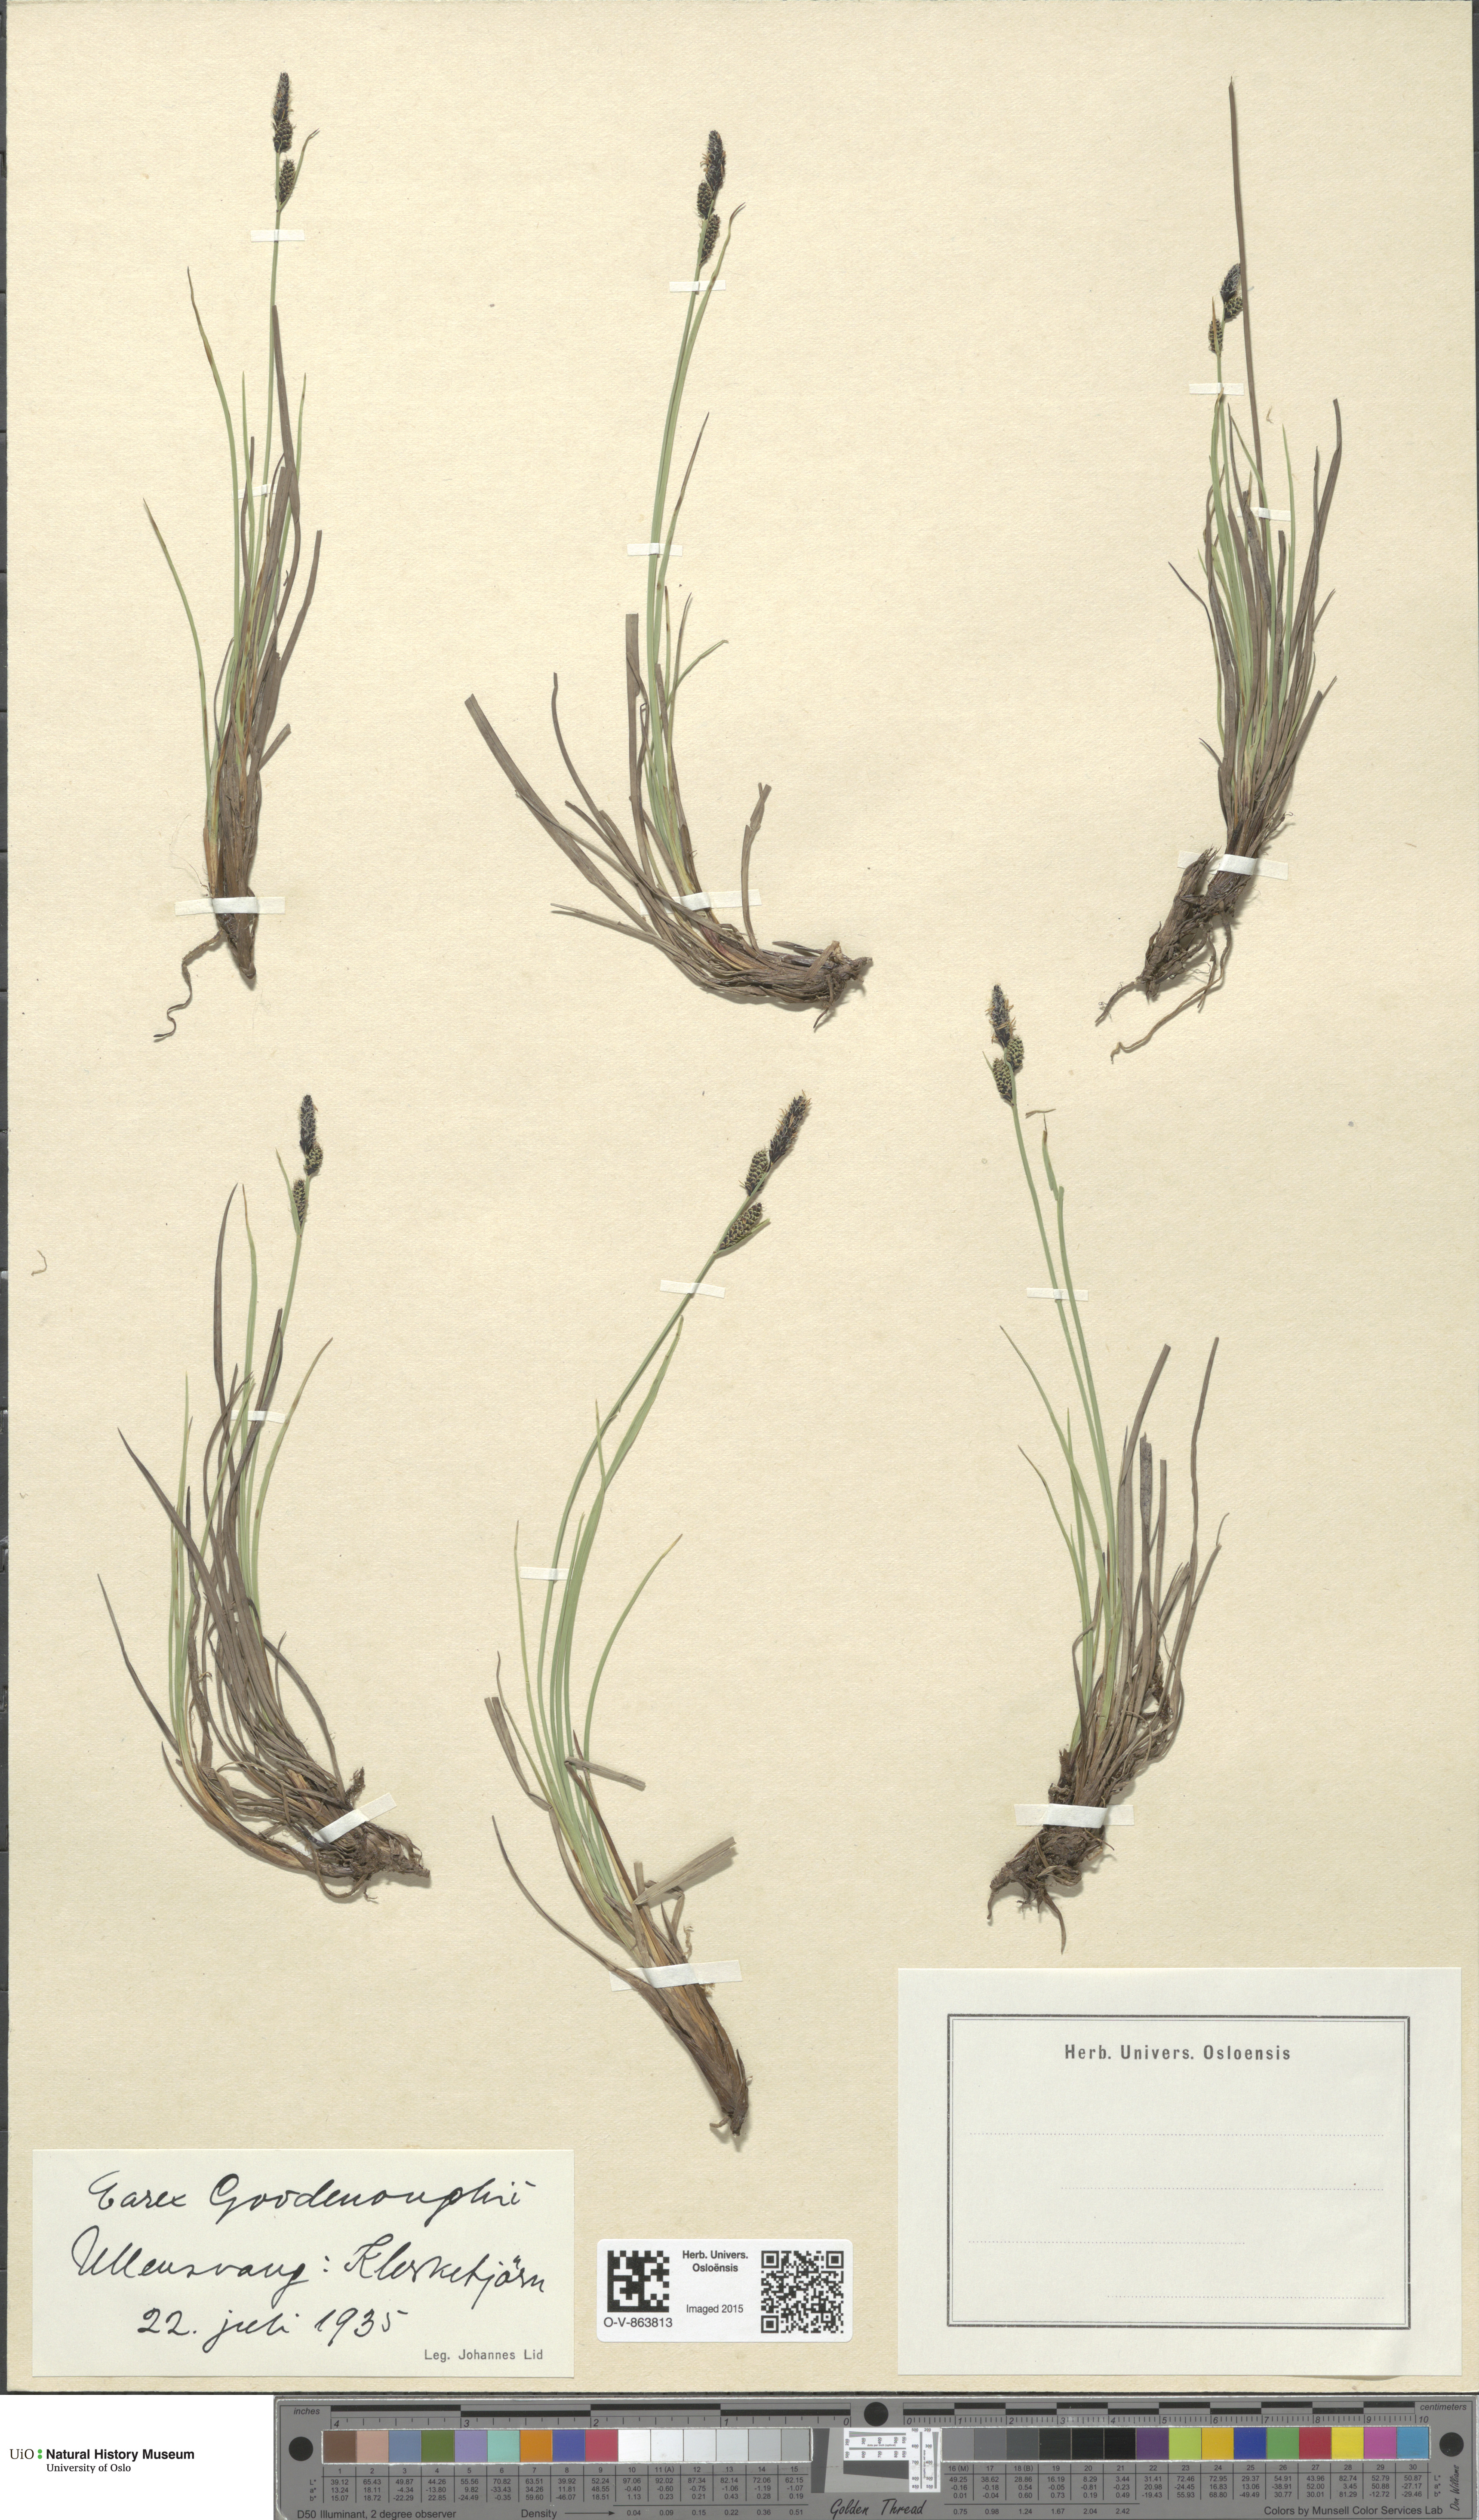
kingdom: Plantae
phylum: Tracheophyta
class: Liliopsida
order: Poales
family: Cyperaceae
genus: Carex
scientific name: Carex nigra
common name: Common sedge
